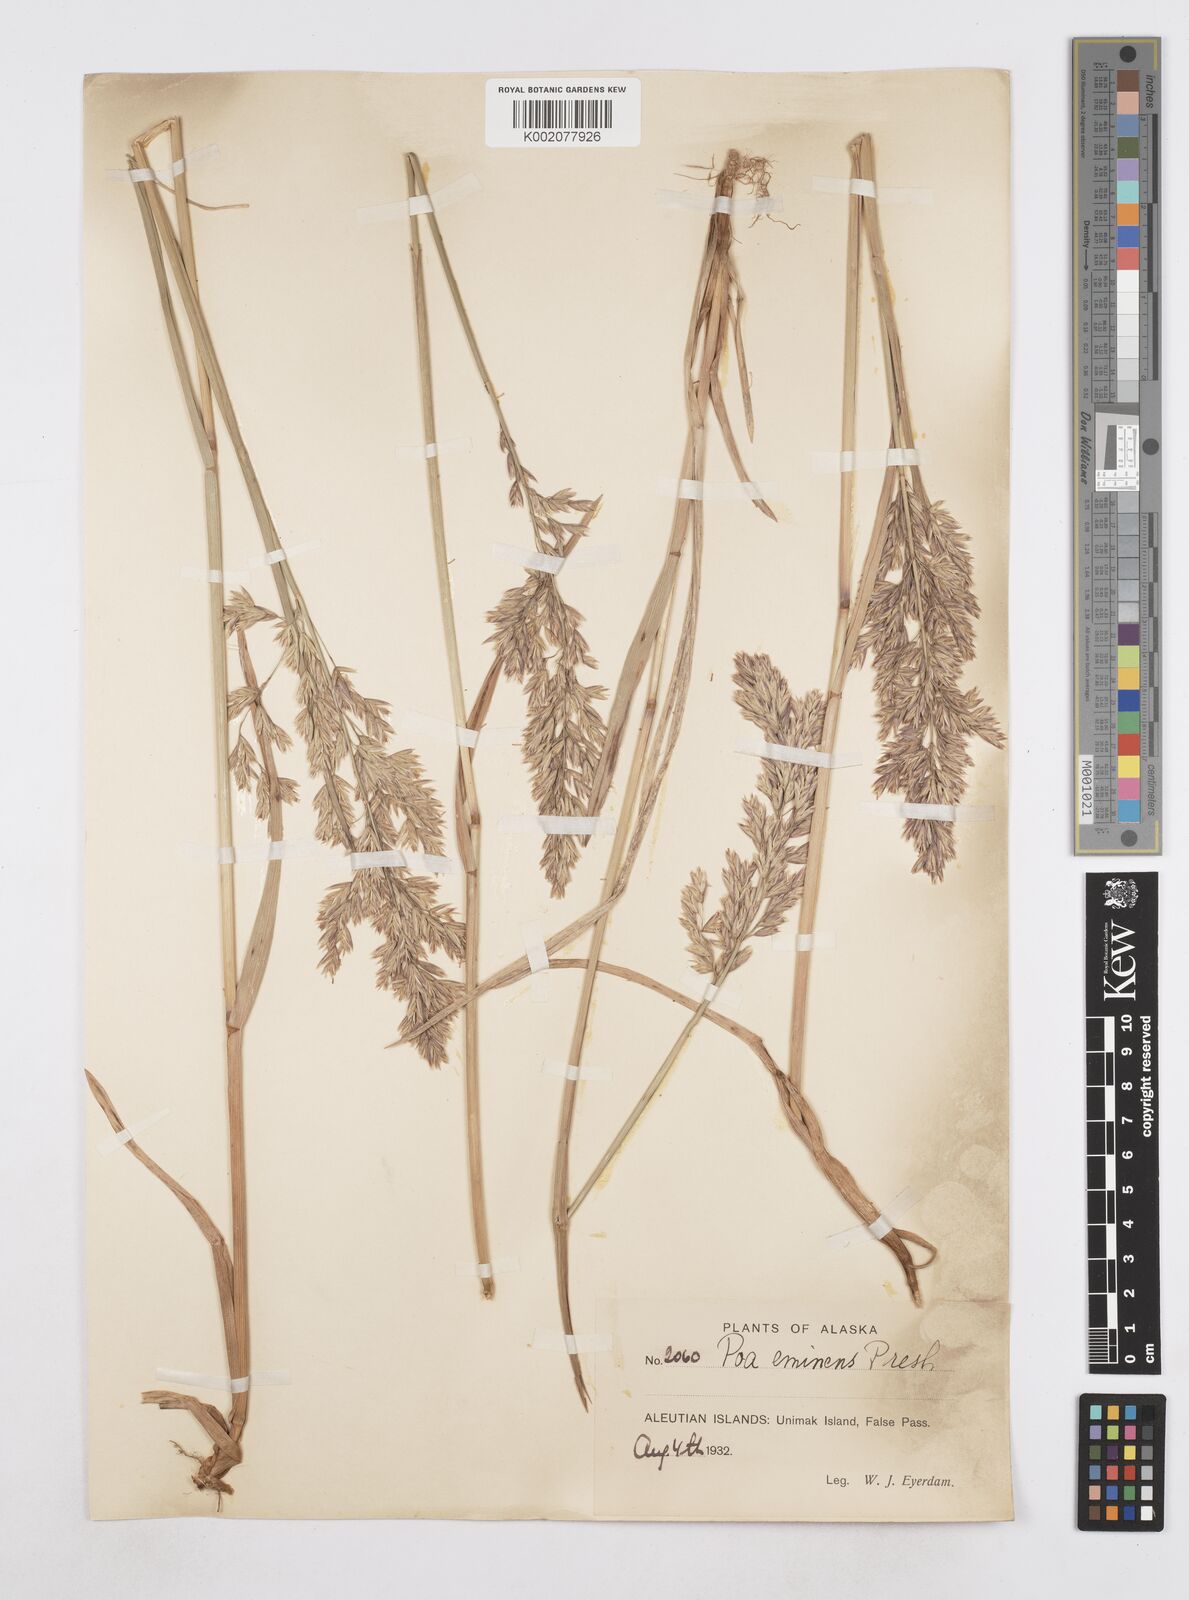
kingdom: Plantae
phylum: Tracheophyta
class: Liliopsida
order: Poales
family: Poaceae
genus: Arctopoa
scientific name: Arctopoa eminens
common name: Eminent bluegrass
